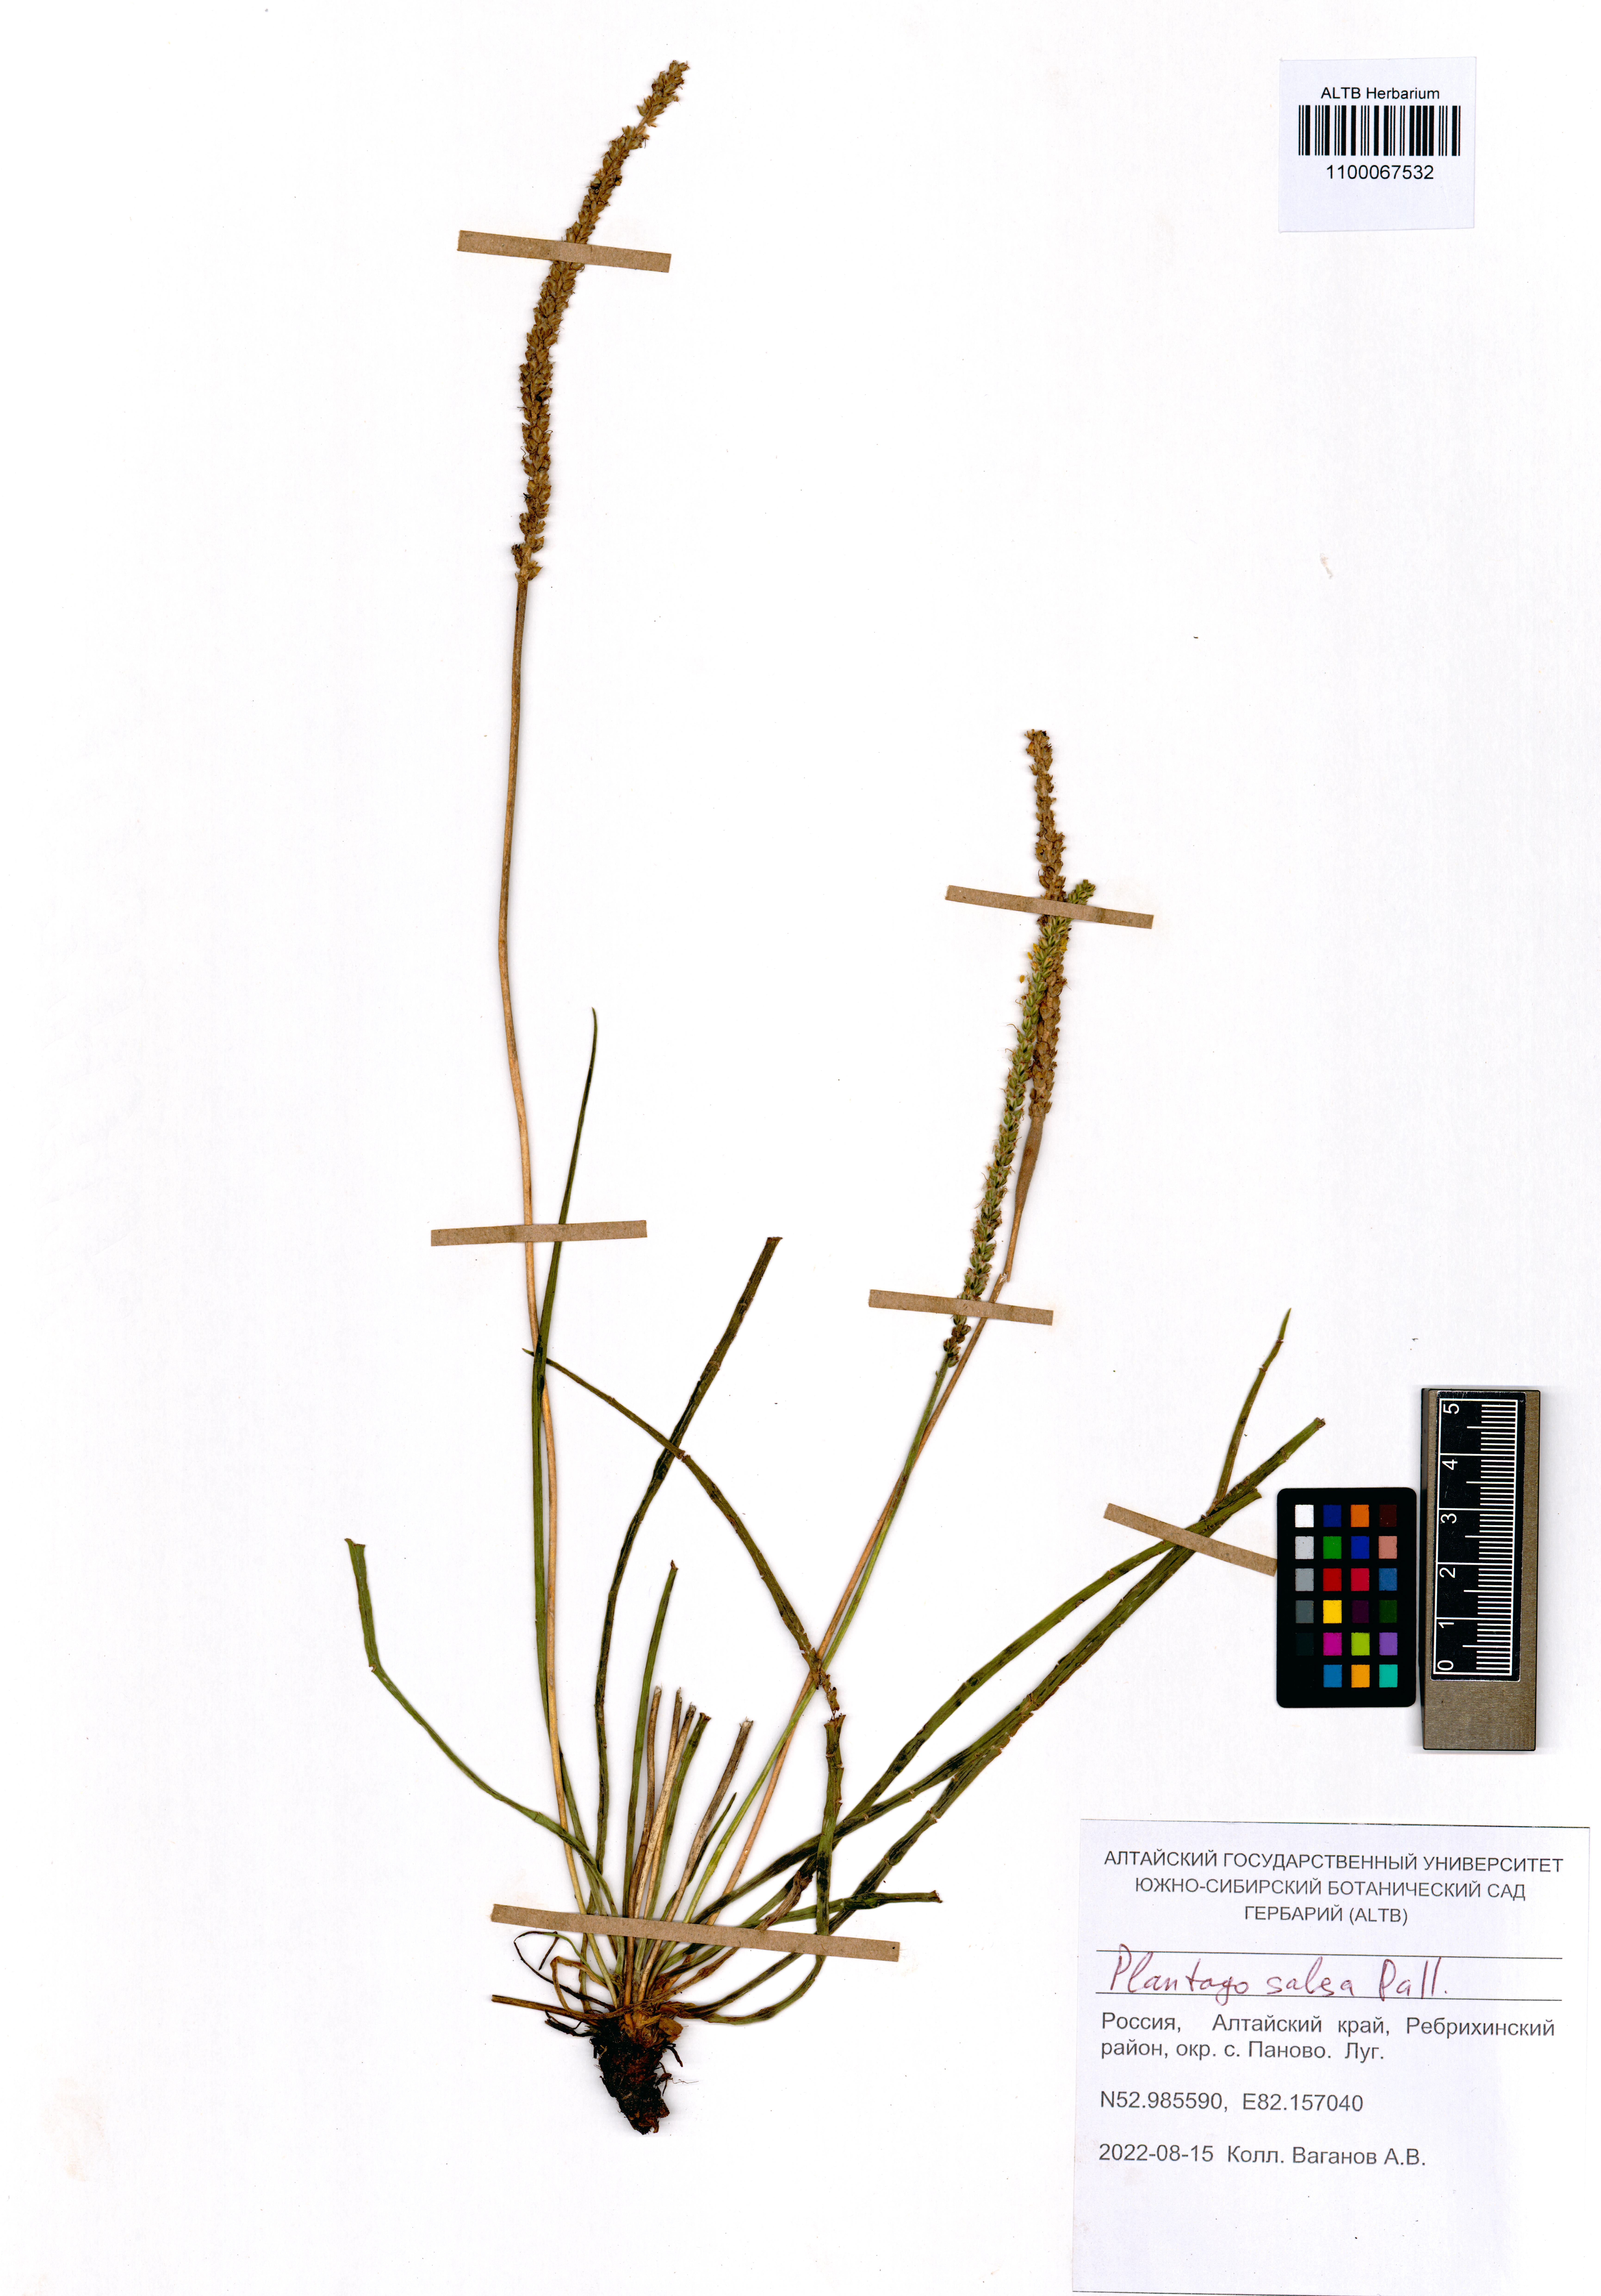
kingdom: Plantae
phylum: Tracheophyta
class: Magnoliopsida
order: Lamiales
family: Plantaginaceae
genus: Plantago
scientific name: Plantago salsa
